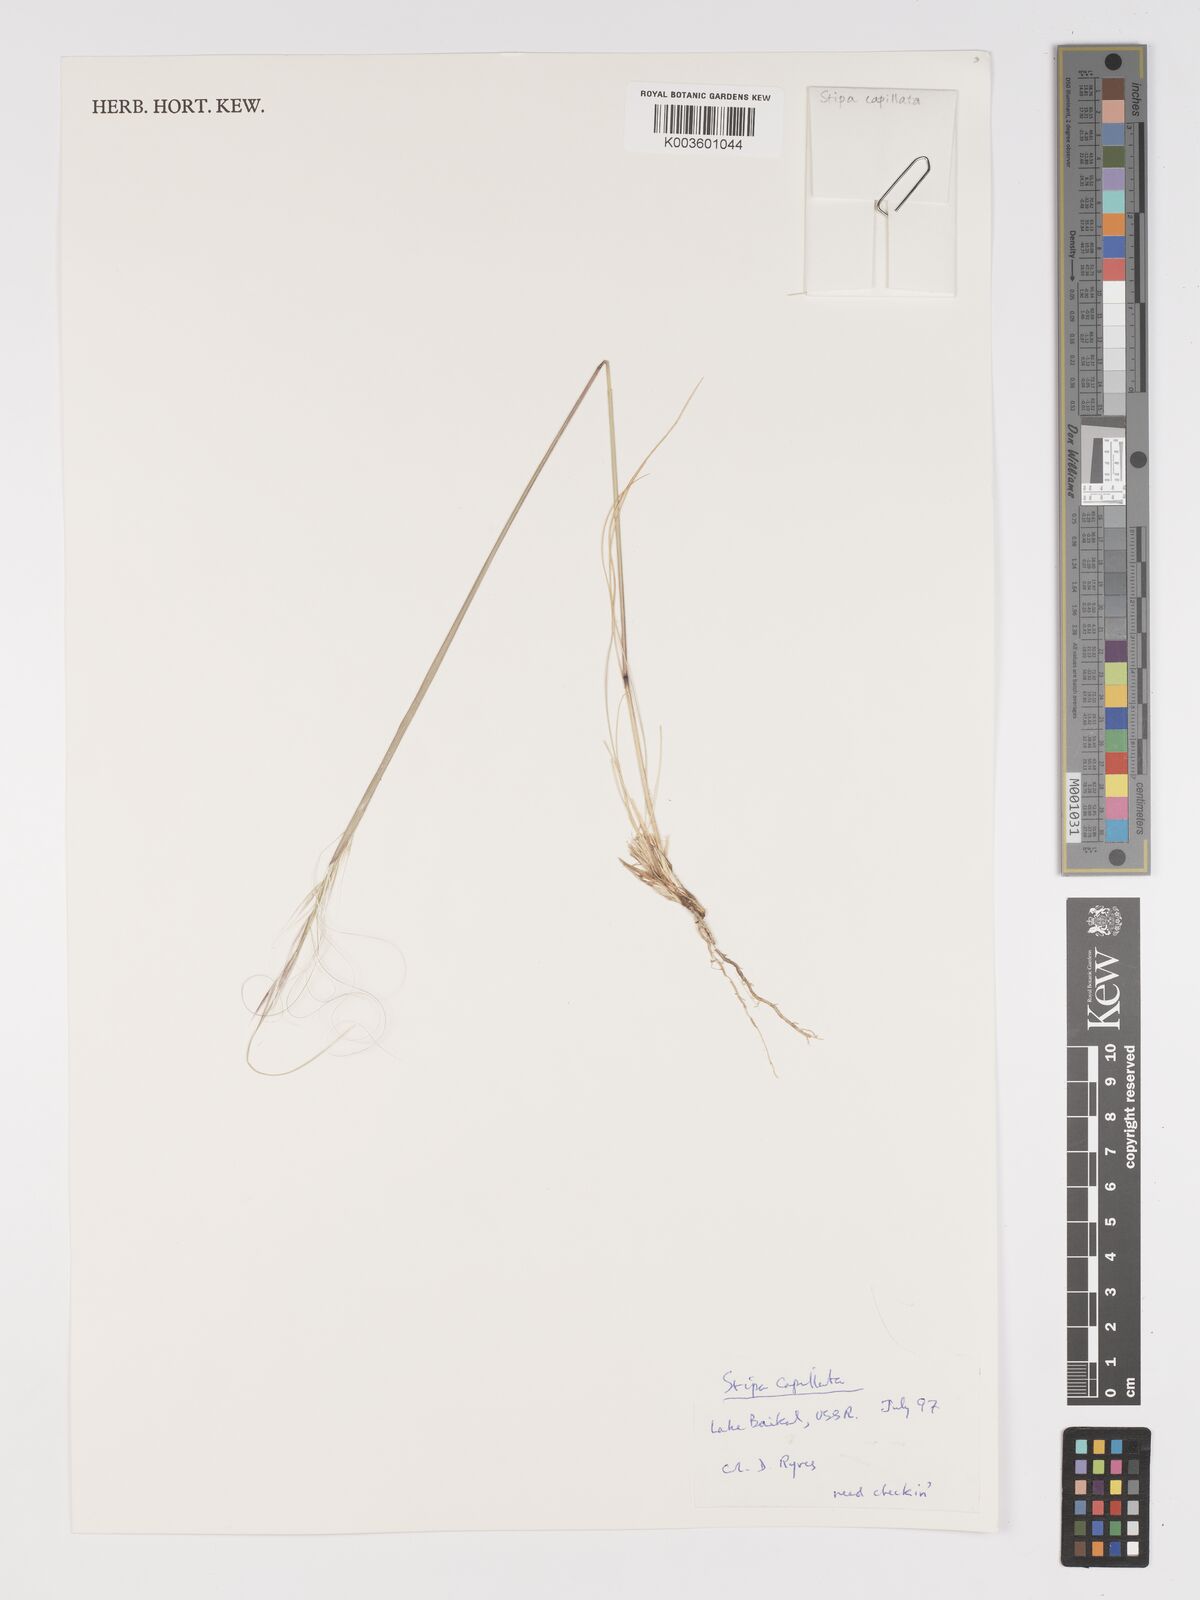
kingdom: Plantae
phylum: Tracheophyta
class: Liliopsida
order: Poales
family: Poaceae
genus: Stipa
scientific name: Stipa capillata
